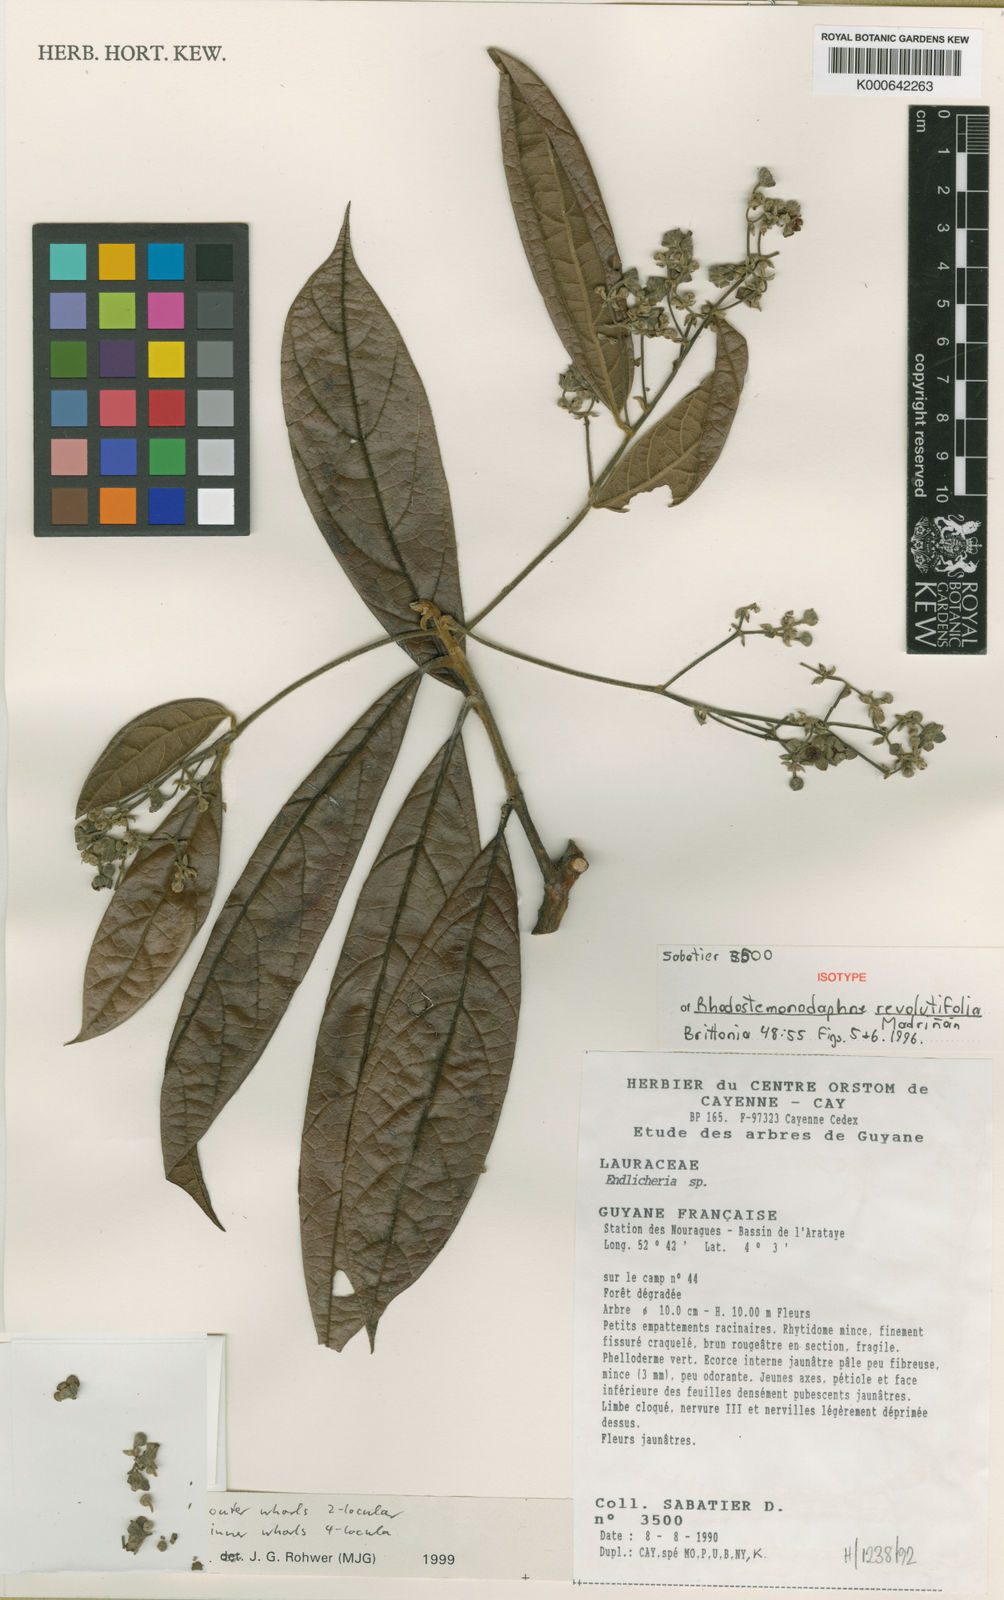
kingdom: Plantae
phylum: Tracheophyta
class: Magnoliopsida
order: Laurales
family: Lauraceae
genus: Rhodostemonodaphne
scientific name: Rhodostemonodaphne
